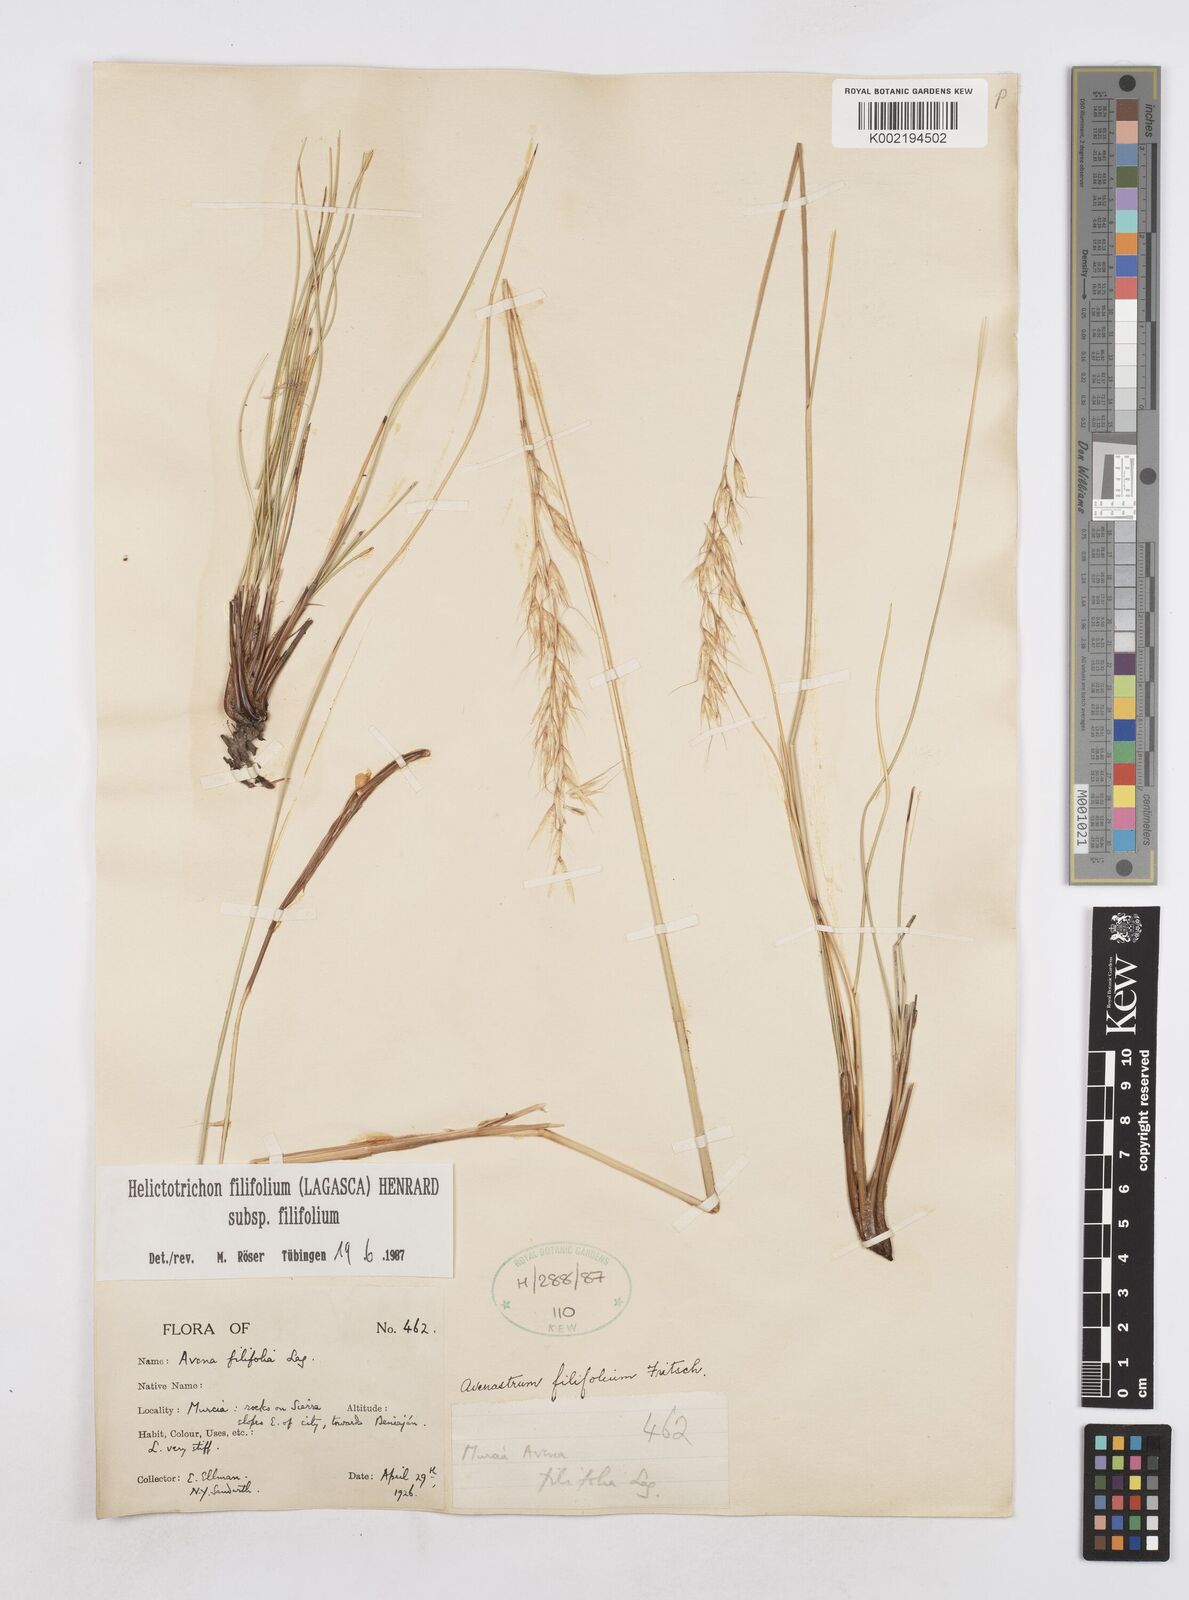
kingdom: Plantae
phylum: Tracheophyta
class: Liliopsida
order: Poales
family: Poaceae
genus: Helictotrichon
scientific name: Helictotrichon filifolium
